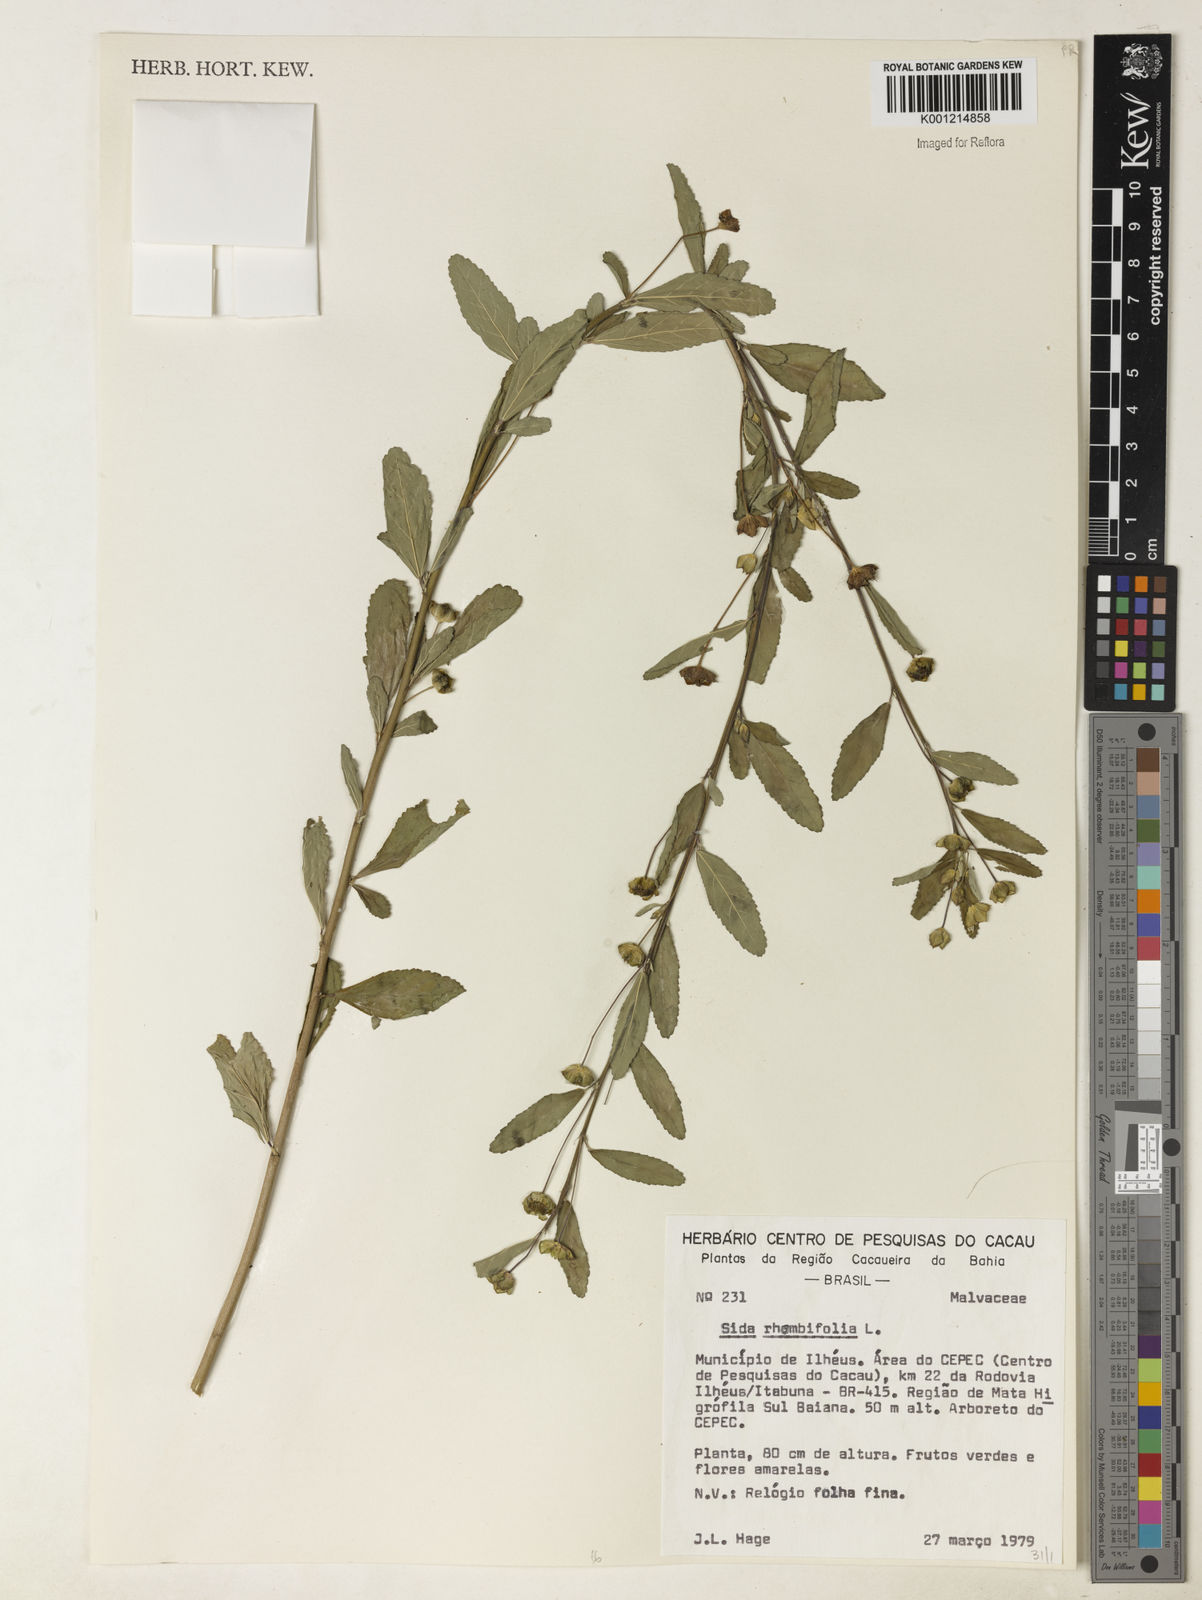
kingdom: Plantae
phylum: Tracheophyta
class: Magnoliopsida
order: Malvales
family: Malvaceae
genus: Sida
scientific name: Sida rhombifolia
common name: Queensland-hemp
